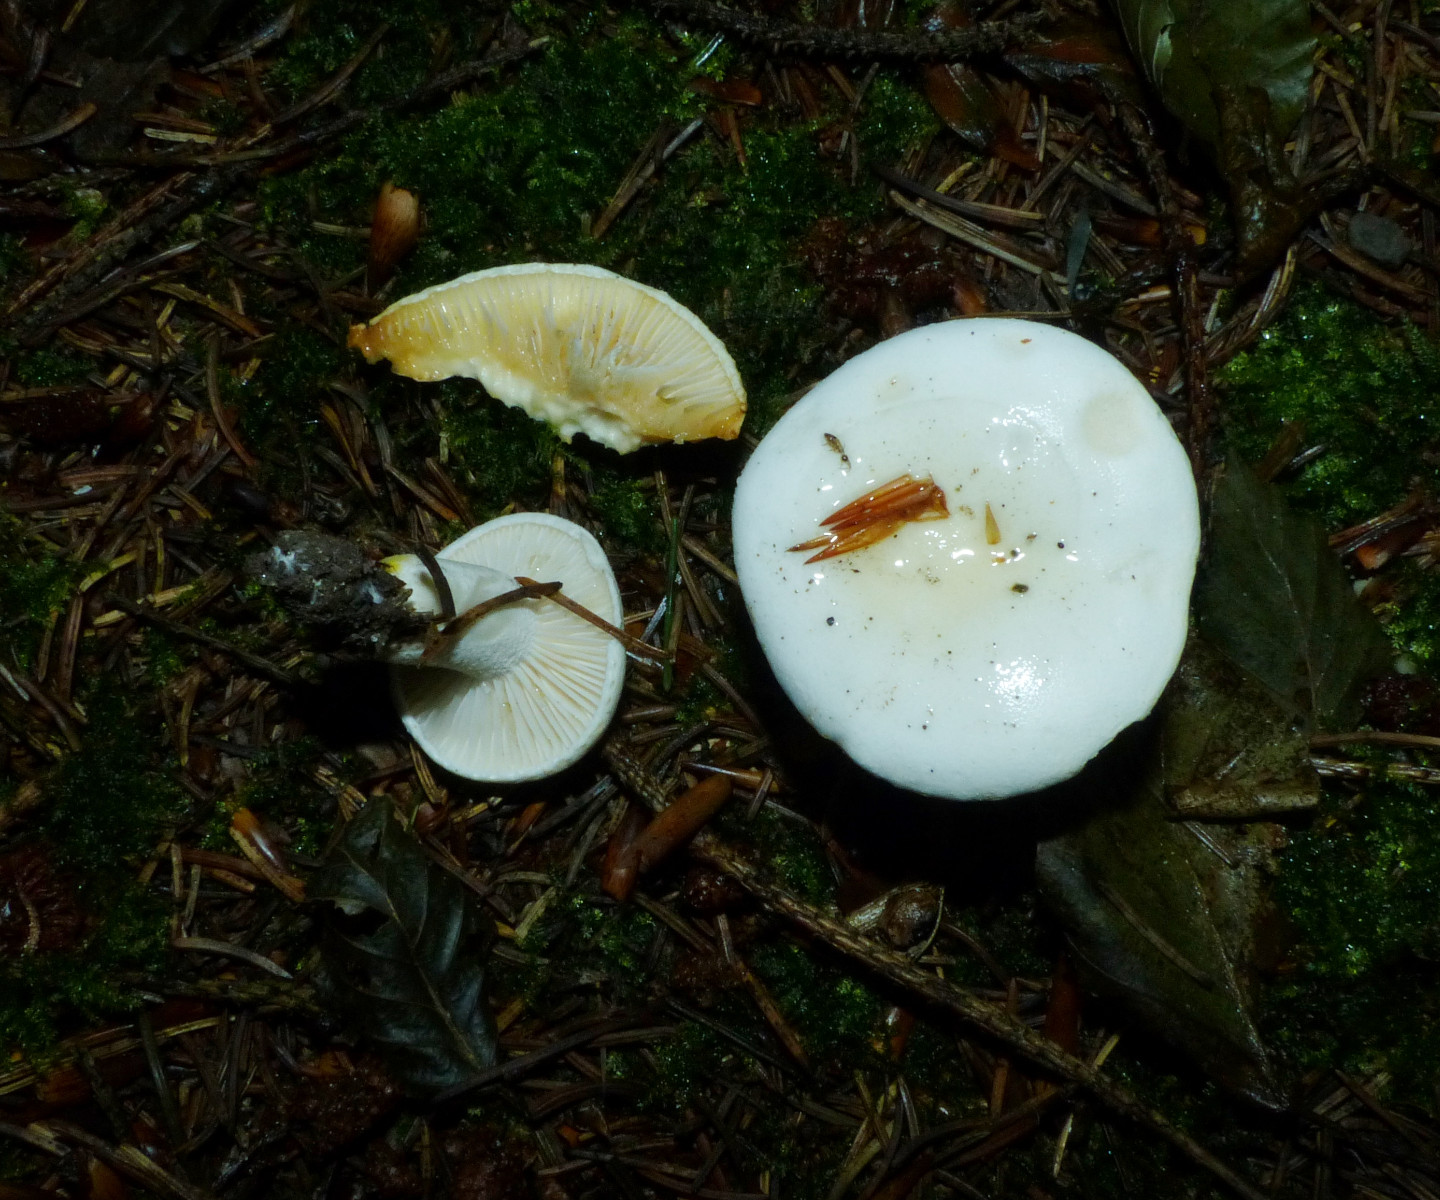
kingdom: Fungi
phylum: Basidiomycota
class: Agaricomycetes
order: Agaricales
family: Hygrophoraceae
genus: Hygrophorus
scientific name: Hygrophorus discoxanthus
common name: ildelugtende sneglehat
